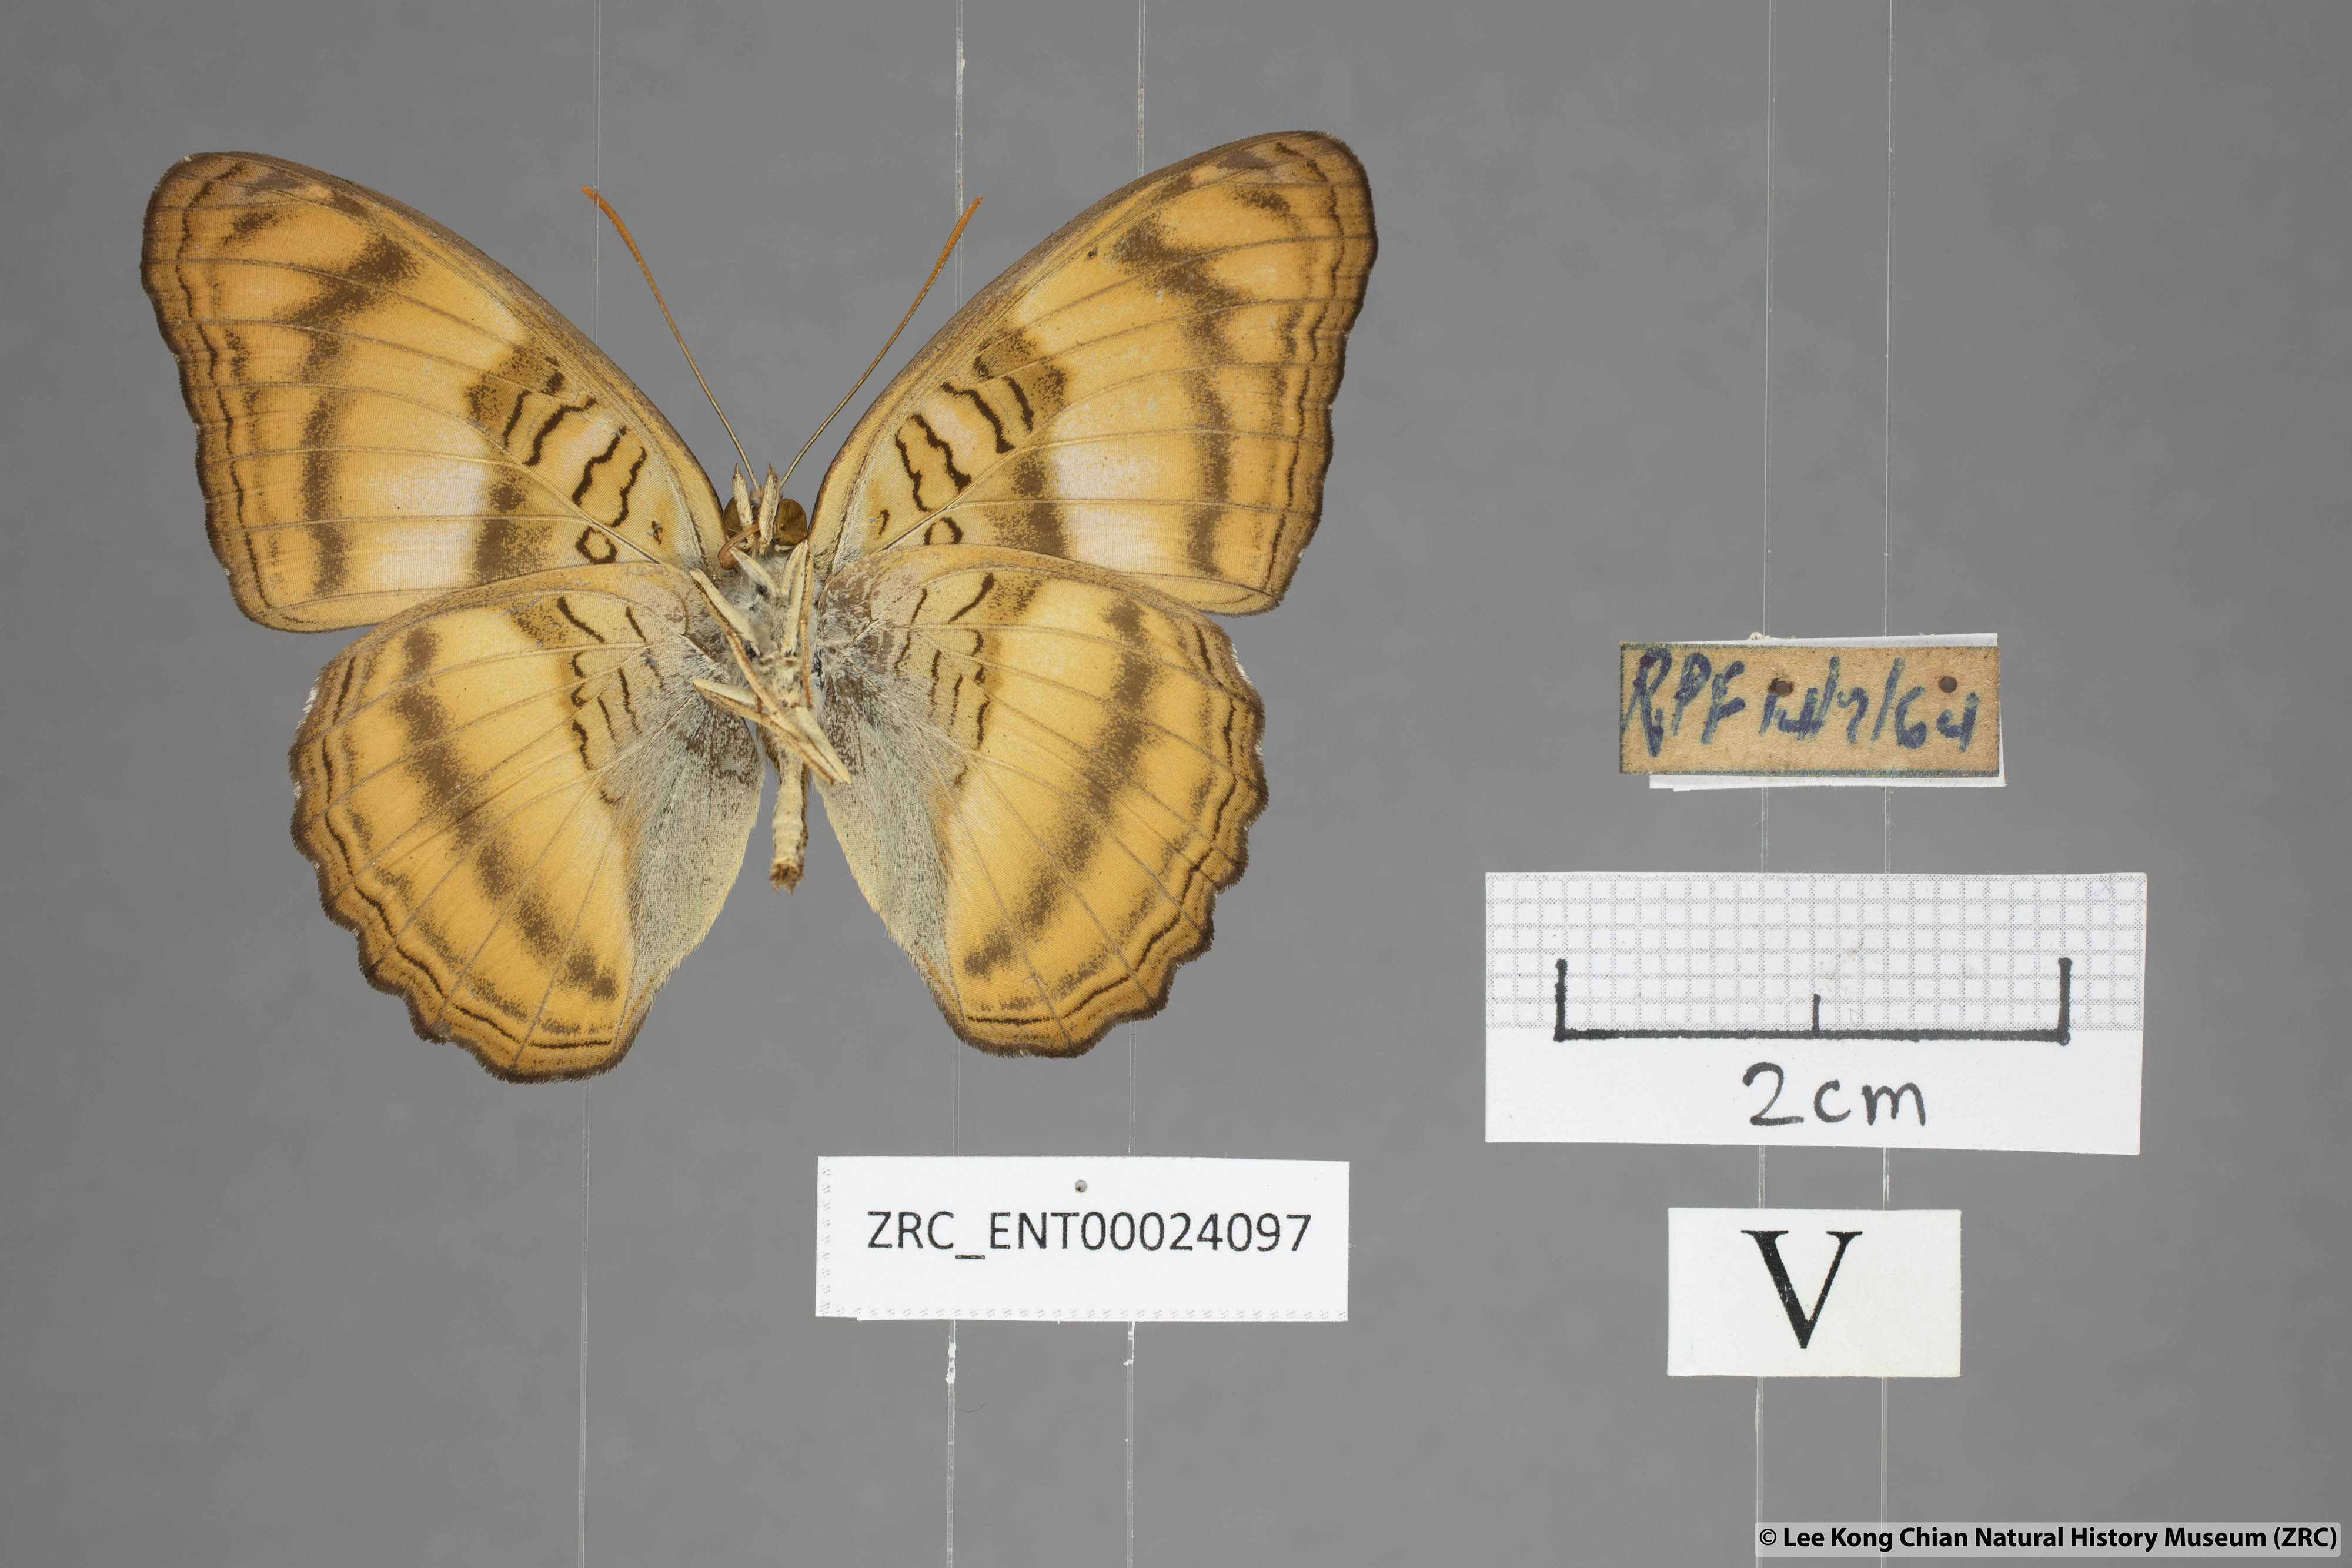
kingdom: Animalia
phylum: Arthropoda
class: Insecta
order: Lepidoptera
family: Nymphalidae
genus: Pandita
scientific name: Pandita sinope
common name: Colonel
